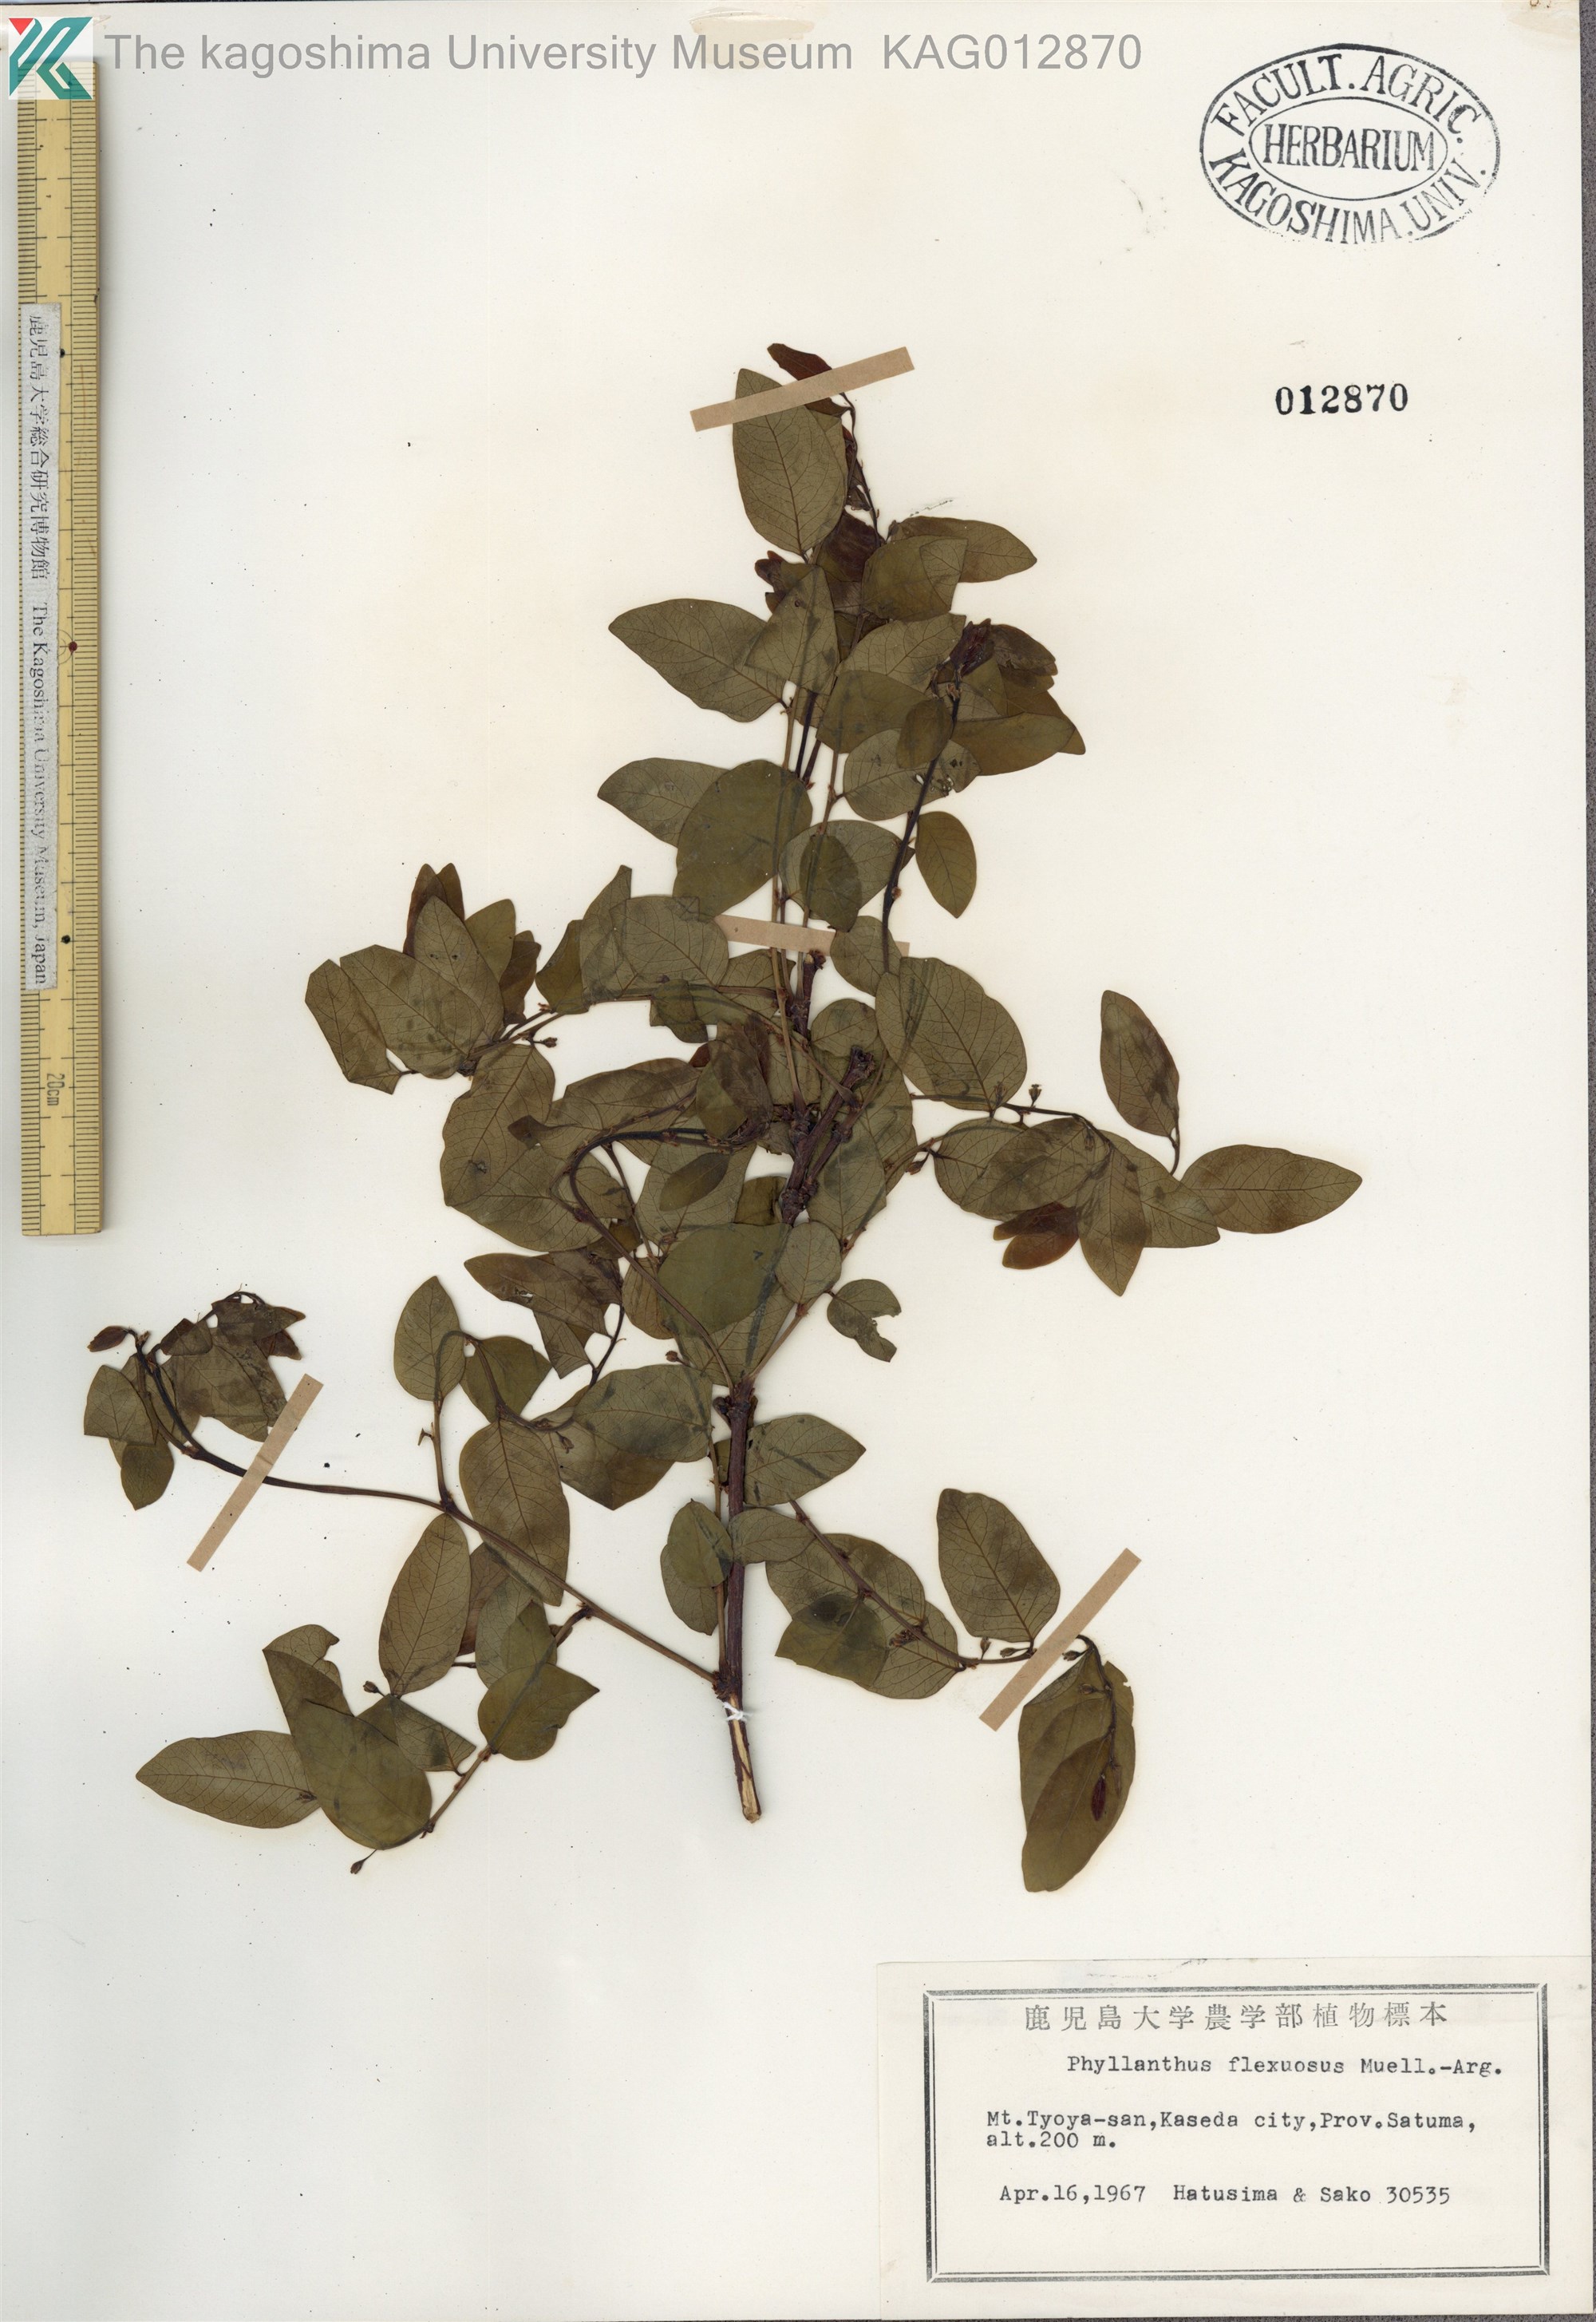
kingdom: Plantae
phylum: Tracheophyta
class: Magnoliopsida
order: Malpighiales
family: Phyllanthaceae
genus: Phyllanthus
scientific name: Phyllanthus flexuosus
